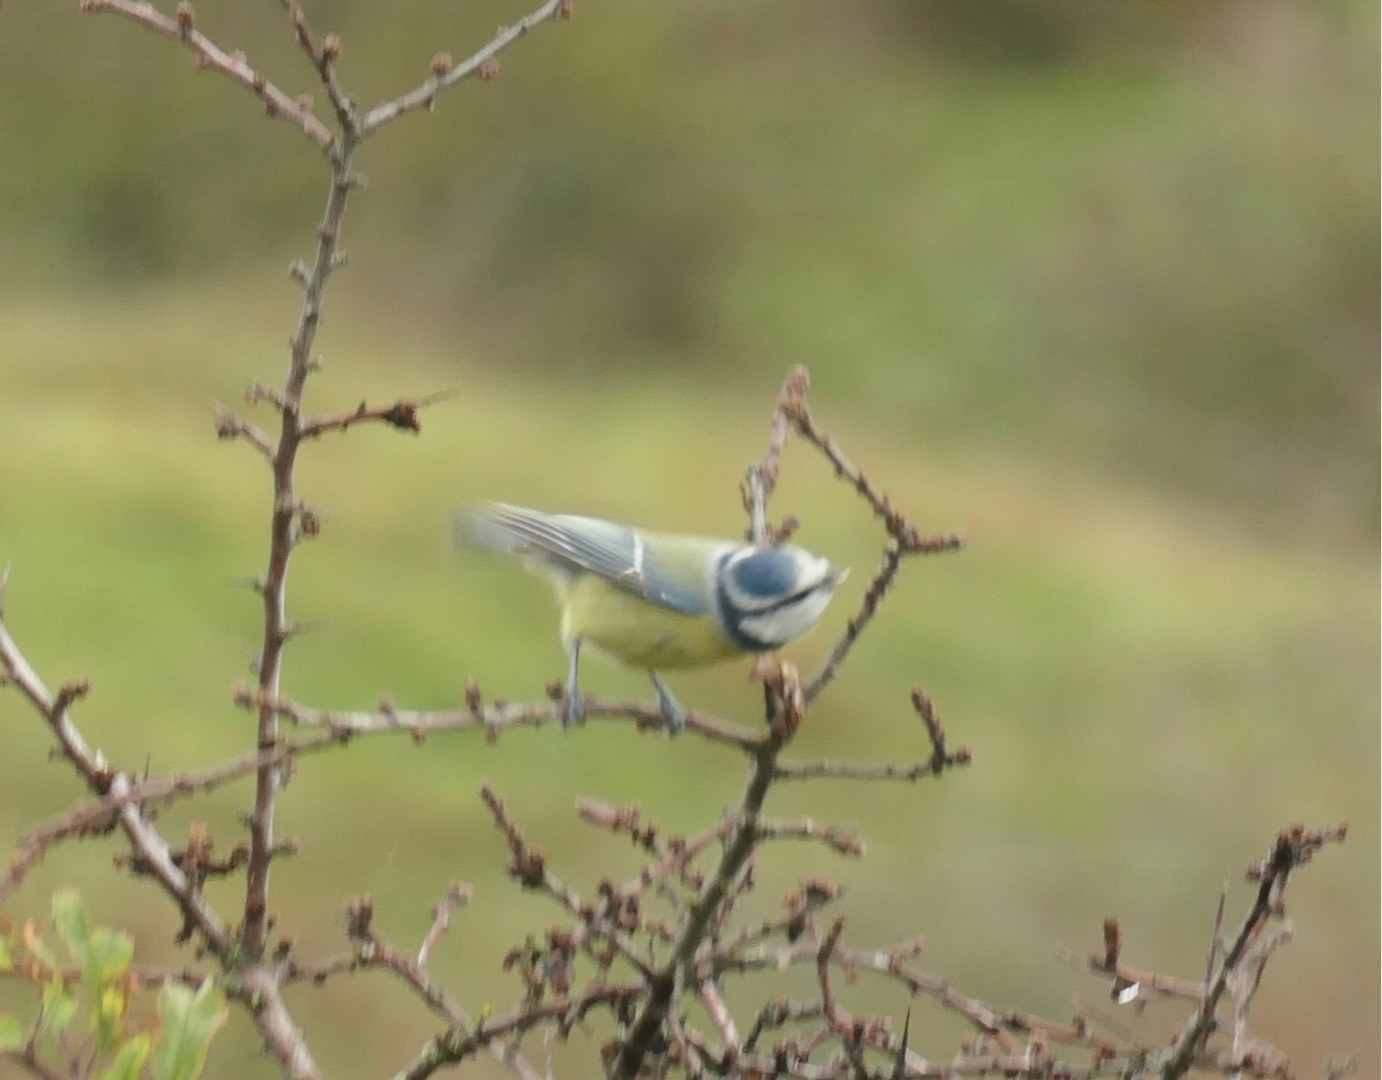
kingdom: Animalia
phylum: Chordata
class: Aves
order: Passeriformes
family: Paridae
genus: Cyanistes
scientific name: Cyanistes caeruleus
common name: Blåmejse
